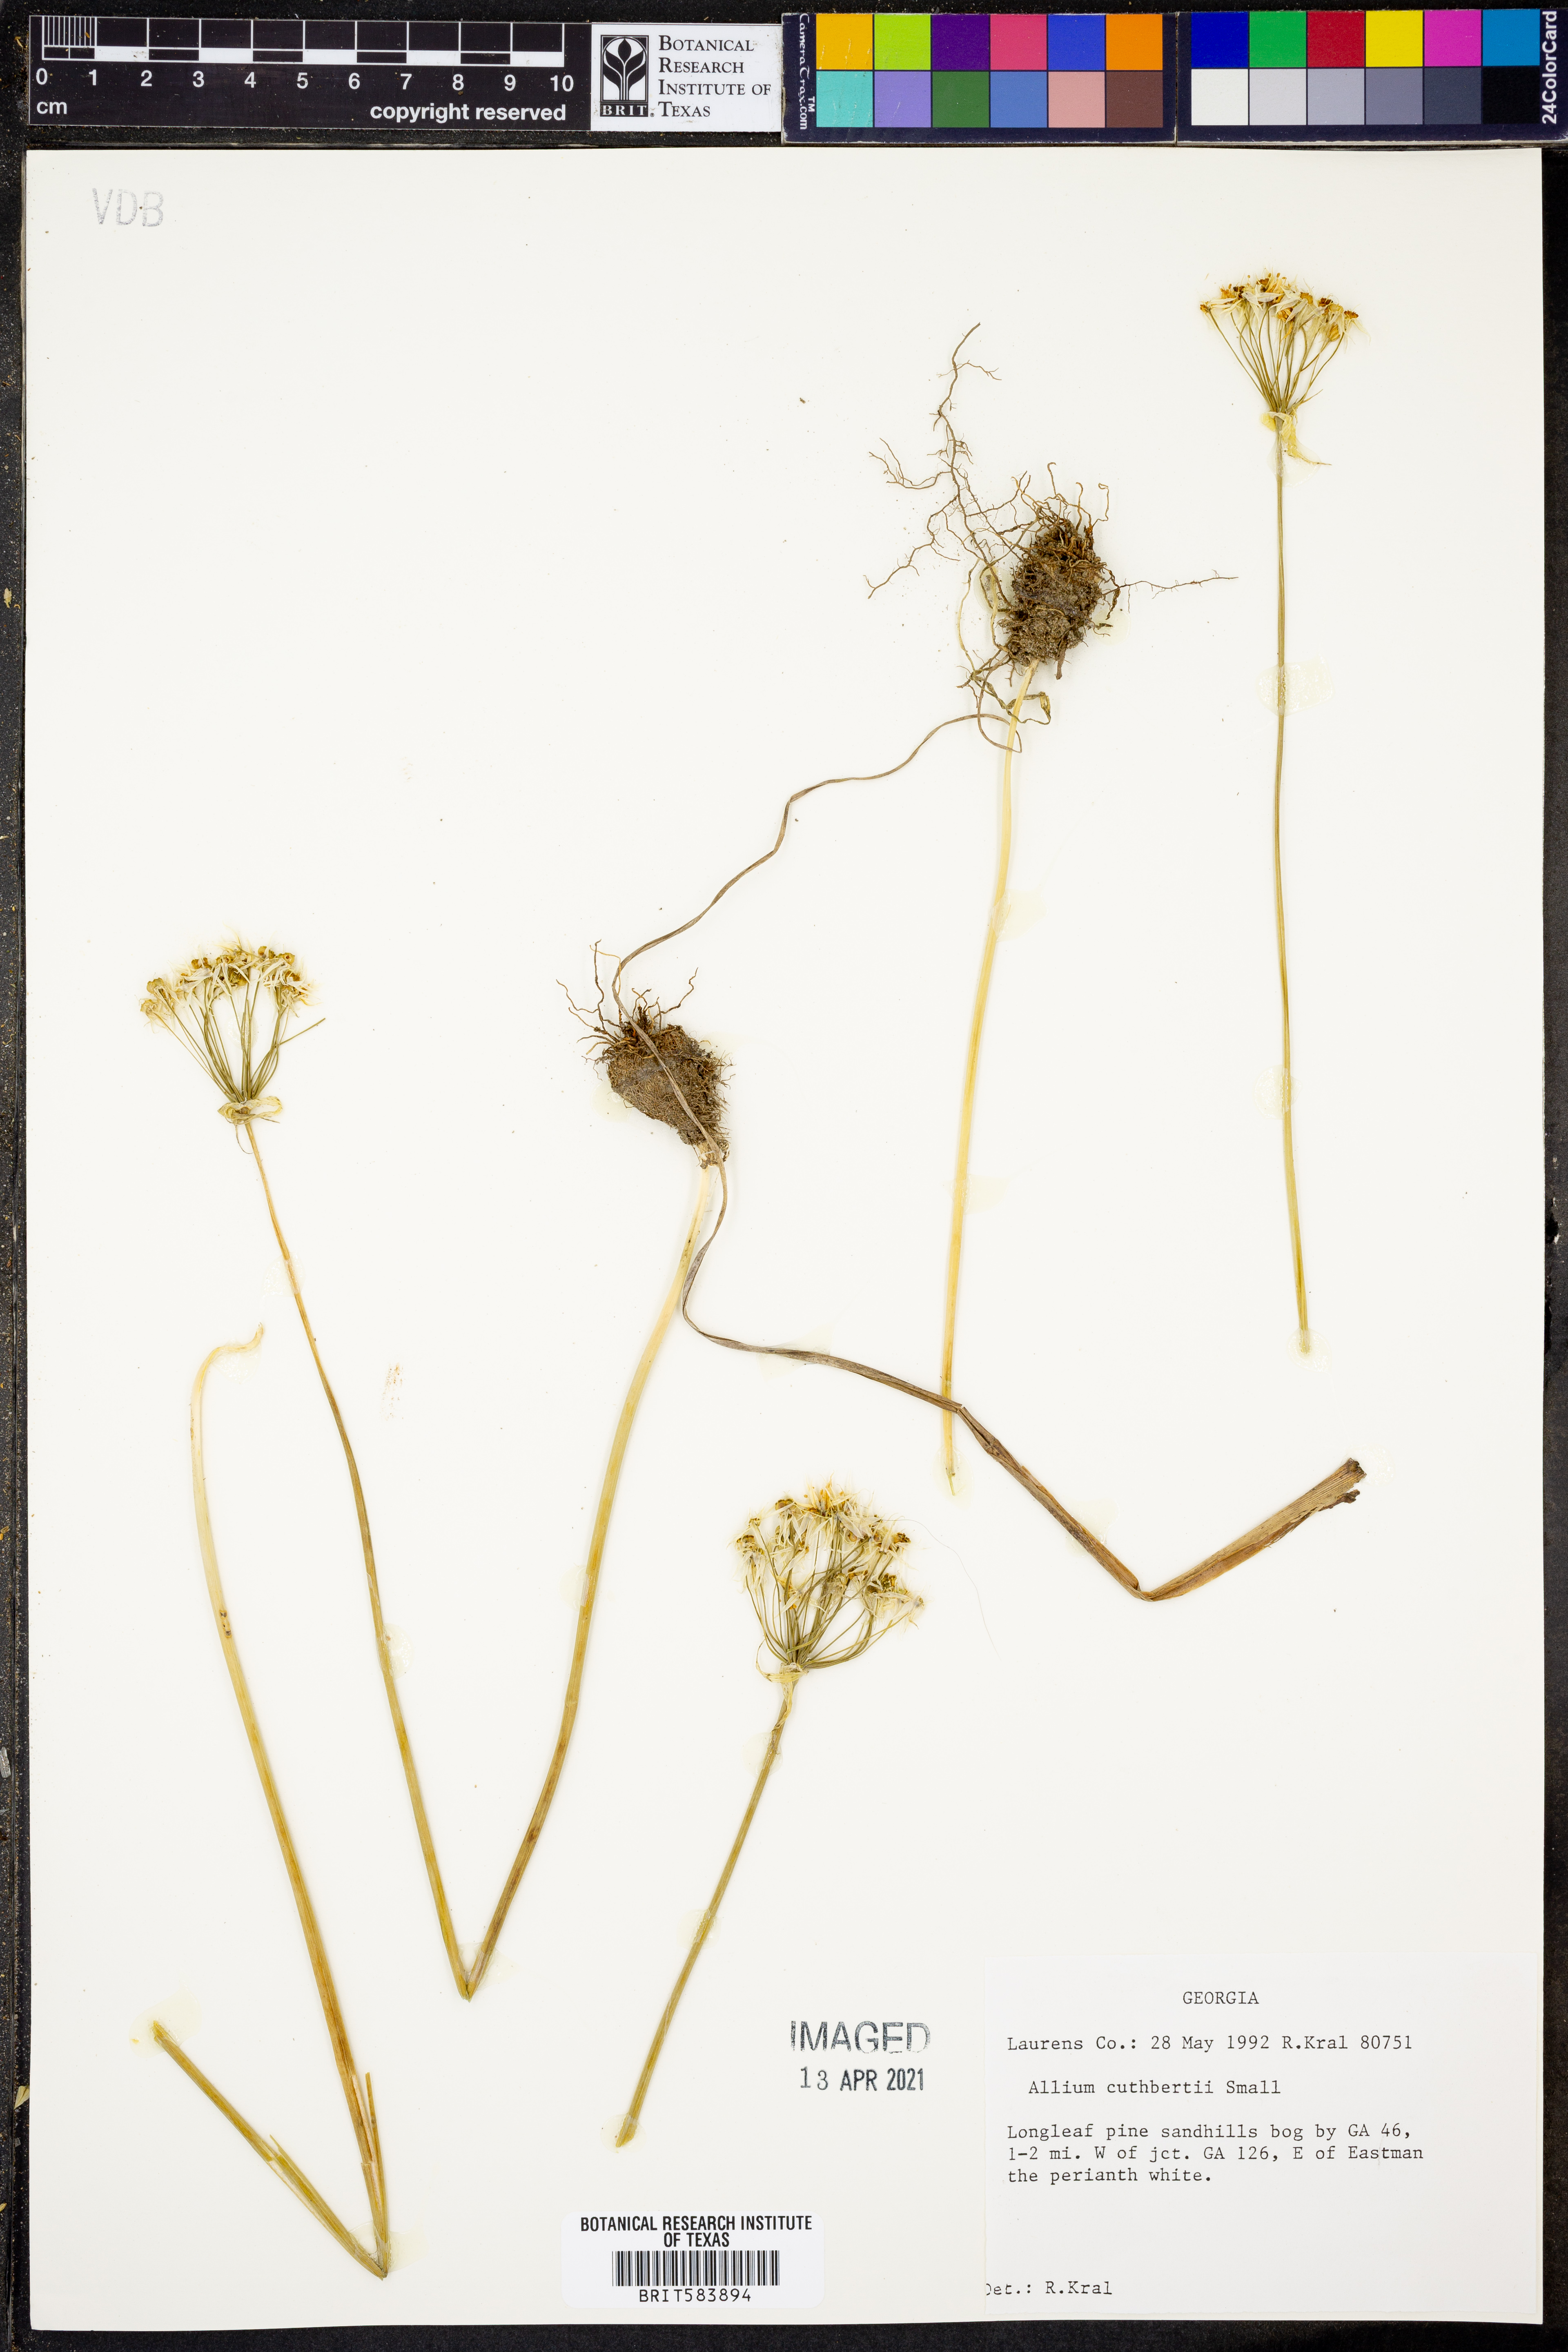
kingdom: Plantae
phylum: Tracheophyta
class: Liliopsida
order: Asparagales
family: Amaryllidaceae
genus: Allium
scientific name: Allium cuthbertii
